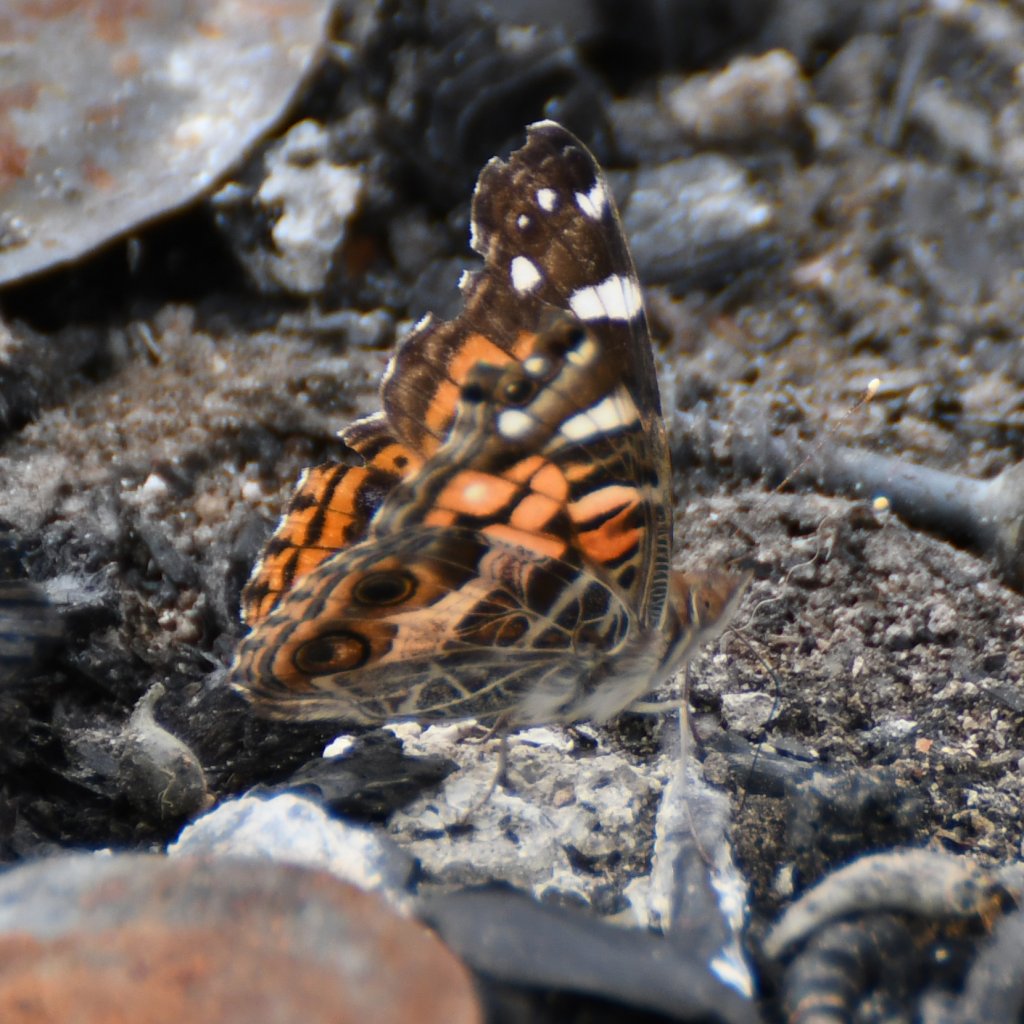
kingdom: Animalia
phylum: Arthropoda
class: Insecta
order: Lepidoptera
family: Nymphalidae
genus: Vanessa
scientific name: Vanessa virginiensis
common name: American Lady
